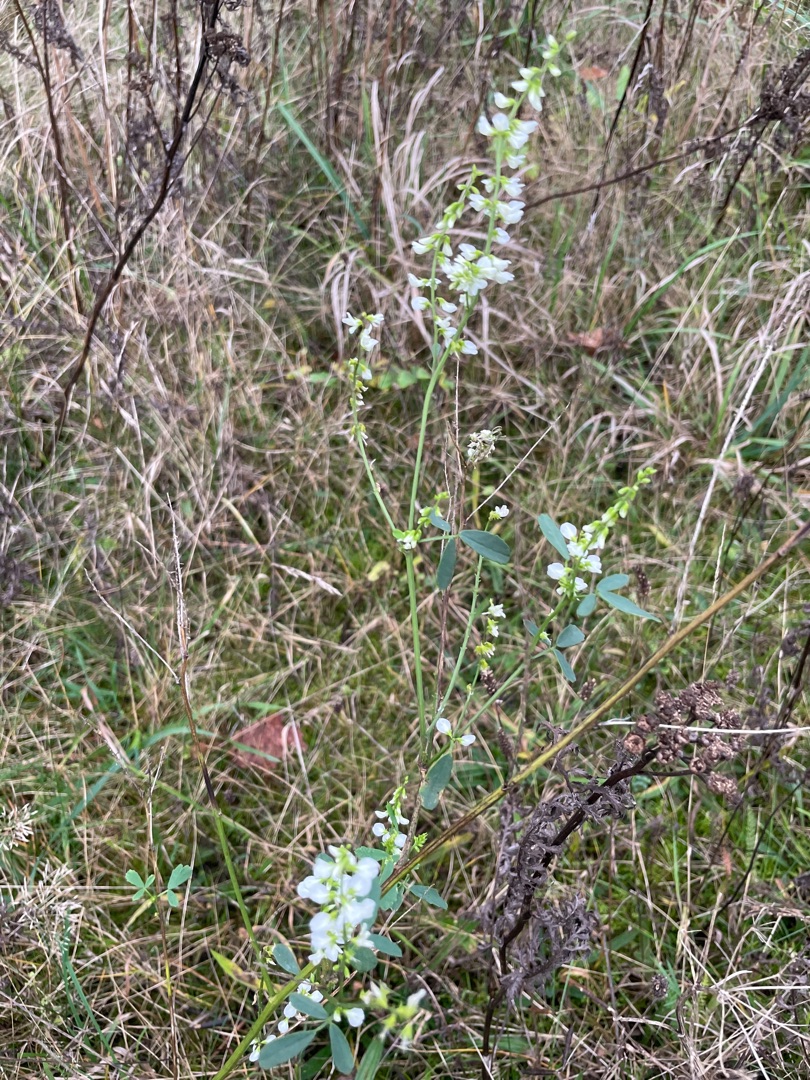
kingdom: Plantae
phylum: Tracheophyta
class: Magnoliopsida
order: Fabales
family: Fabaceae
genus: Melilotus
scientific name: Melilotus albus
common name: Hvid stenkløver
